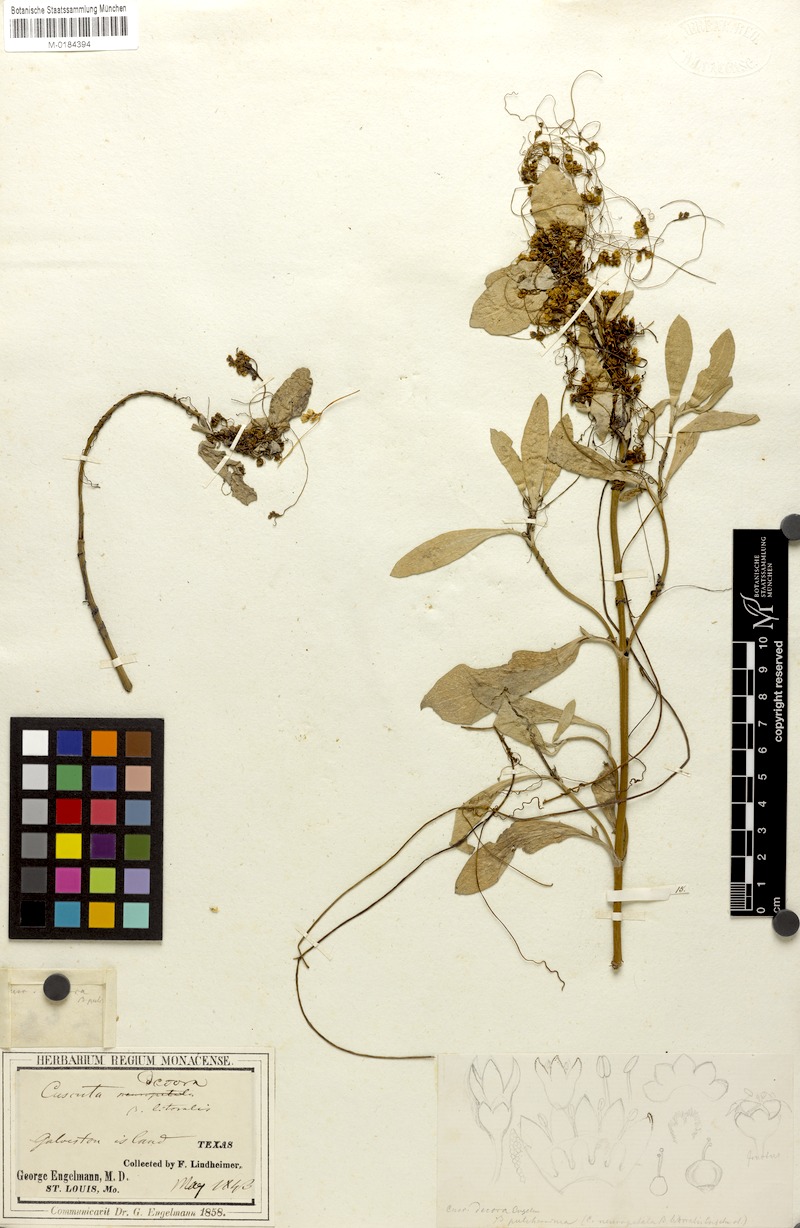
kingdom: Plantae
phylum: Tracheophyta
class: Magnoliopsida
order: Solanales
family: Convolvulaceae
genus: Cuscuta
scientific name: Cuscuta indecora
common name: Large-seed dodder
